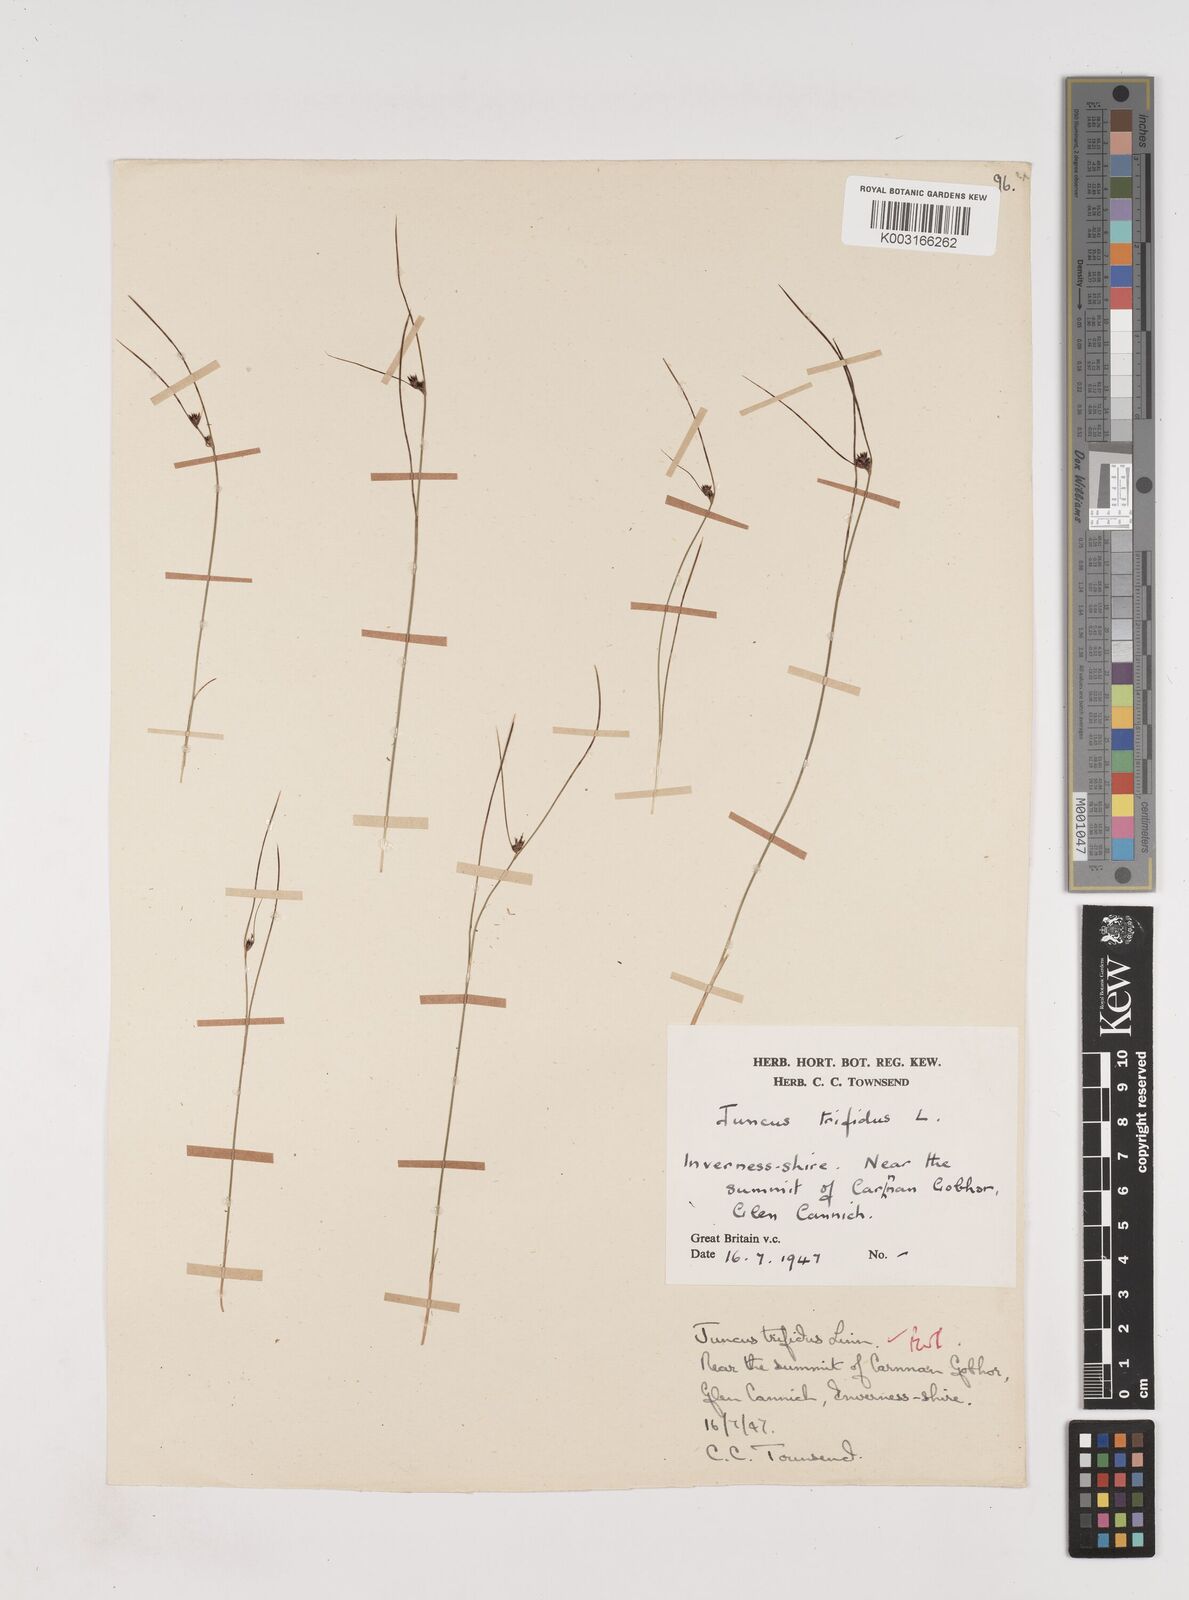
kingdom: Plantae
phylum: Tracheophyta
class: Liliopsida
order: Poales
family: Juncaceae
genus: Oreojuncus
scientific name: Oreojuncus trifidus
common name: Highland rush
